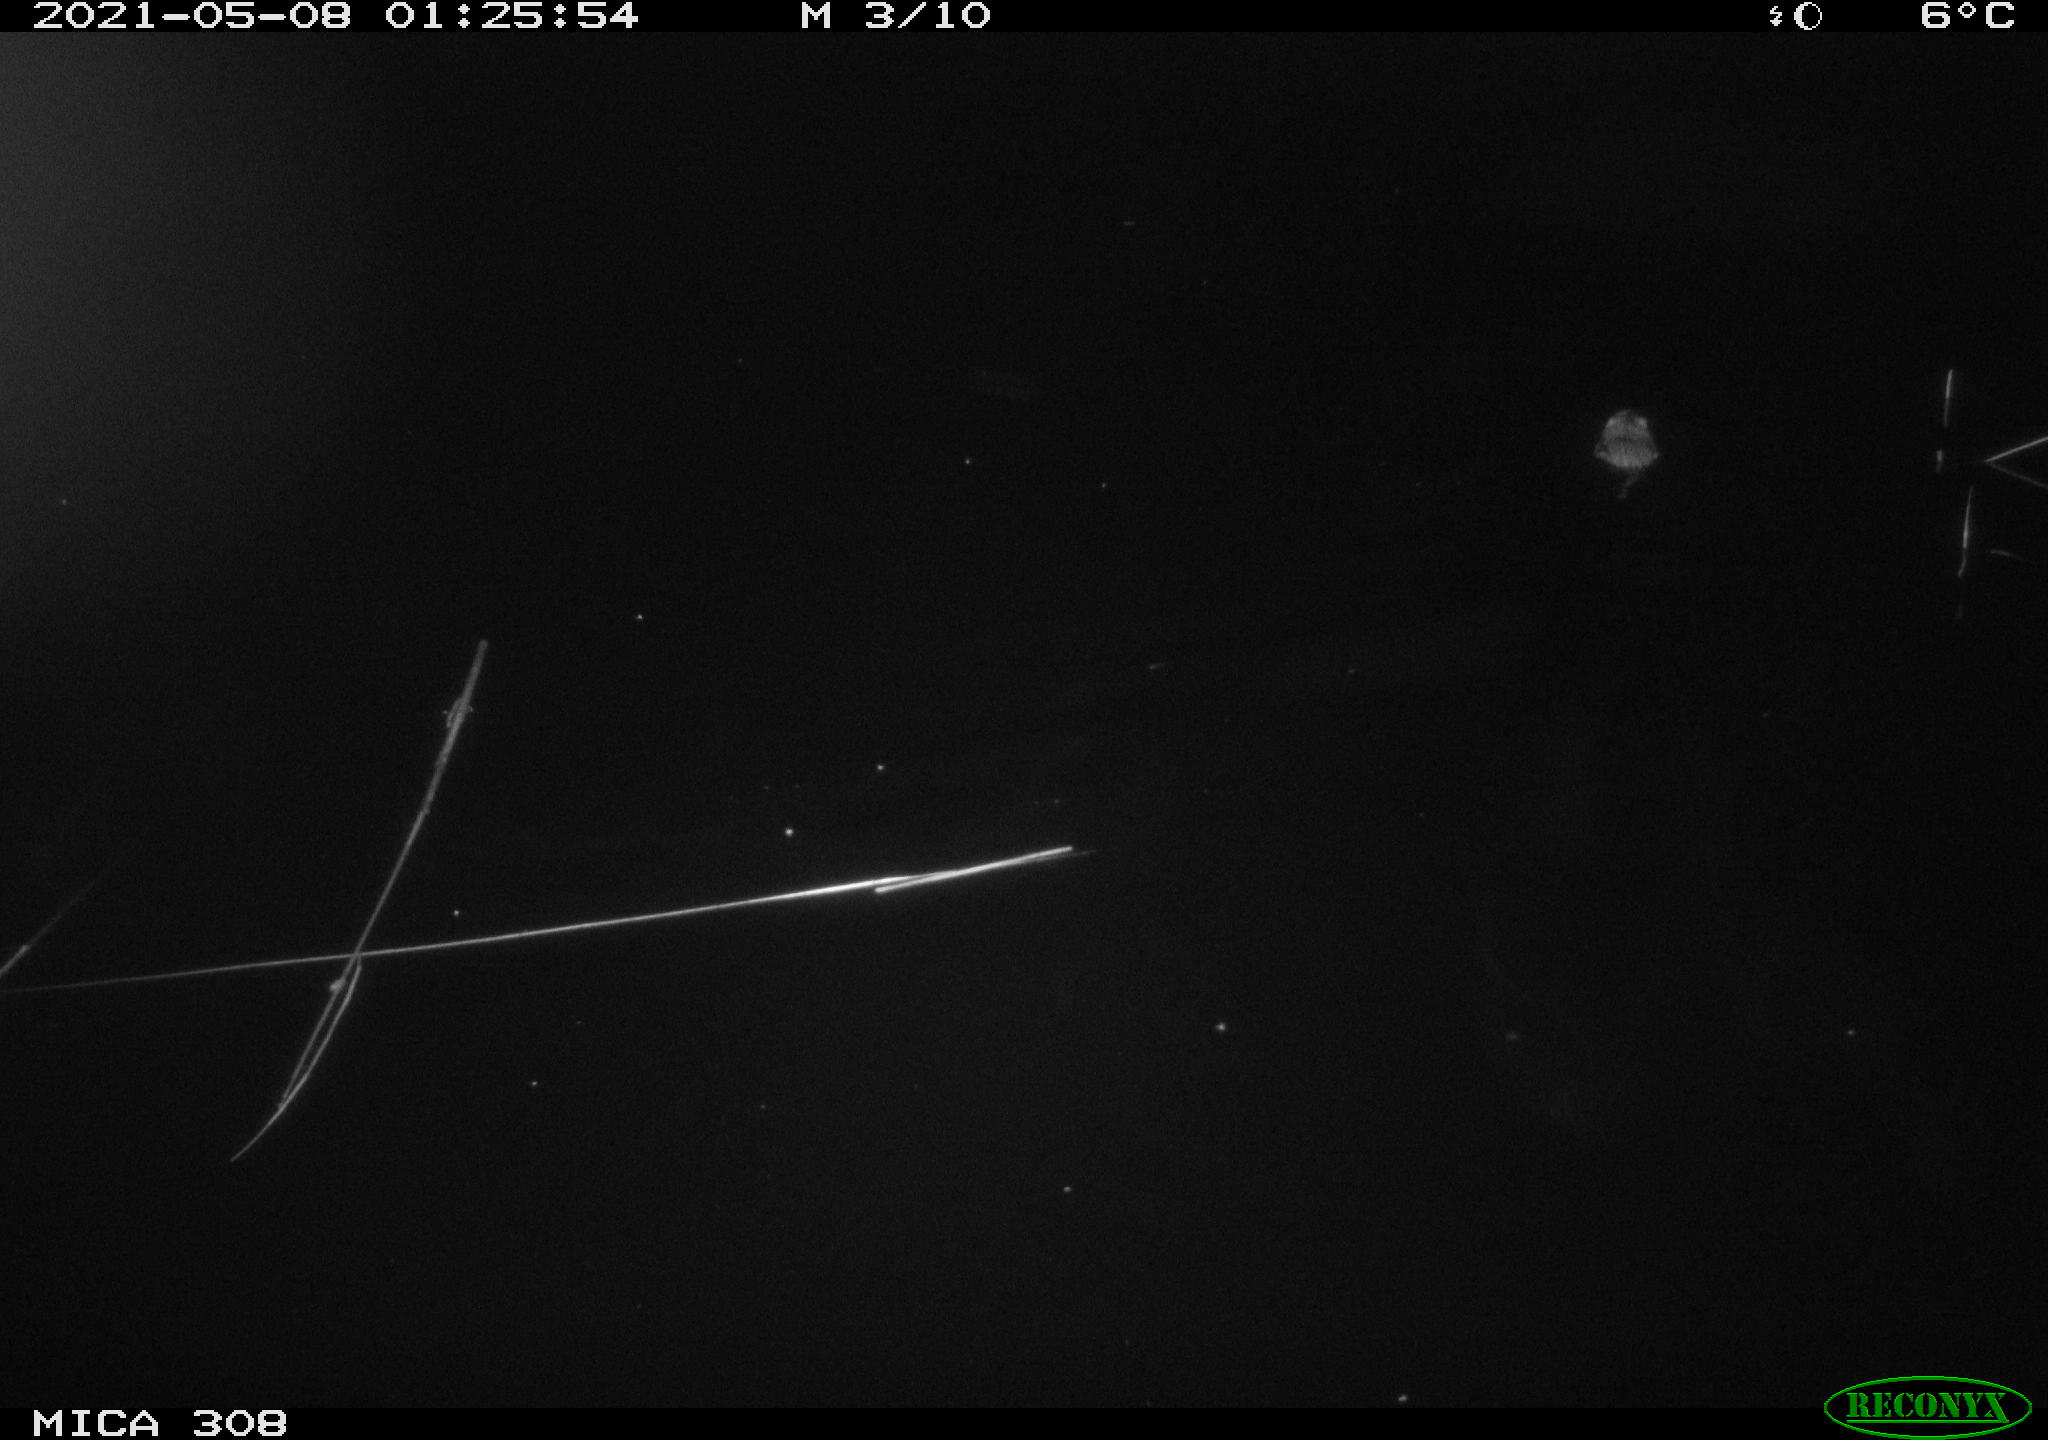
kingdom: Animalia
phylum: Chordata
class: Mammalia
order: Rodentia
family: Cricetidae
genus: Ondatra
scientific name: Ondatra zibethicus
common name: Muskrat
